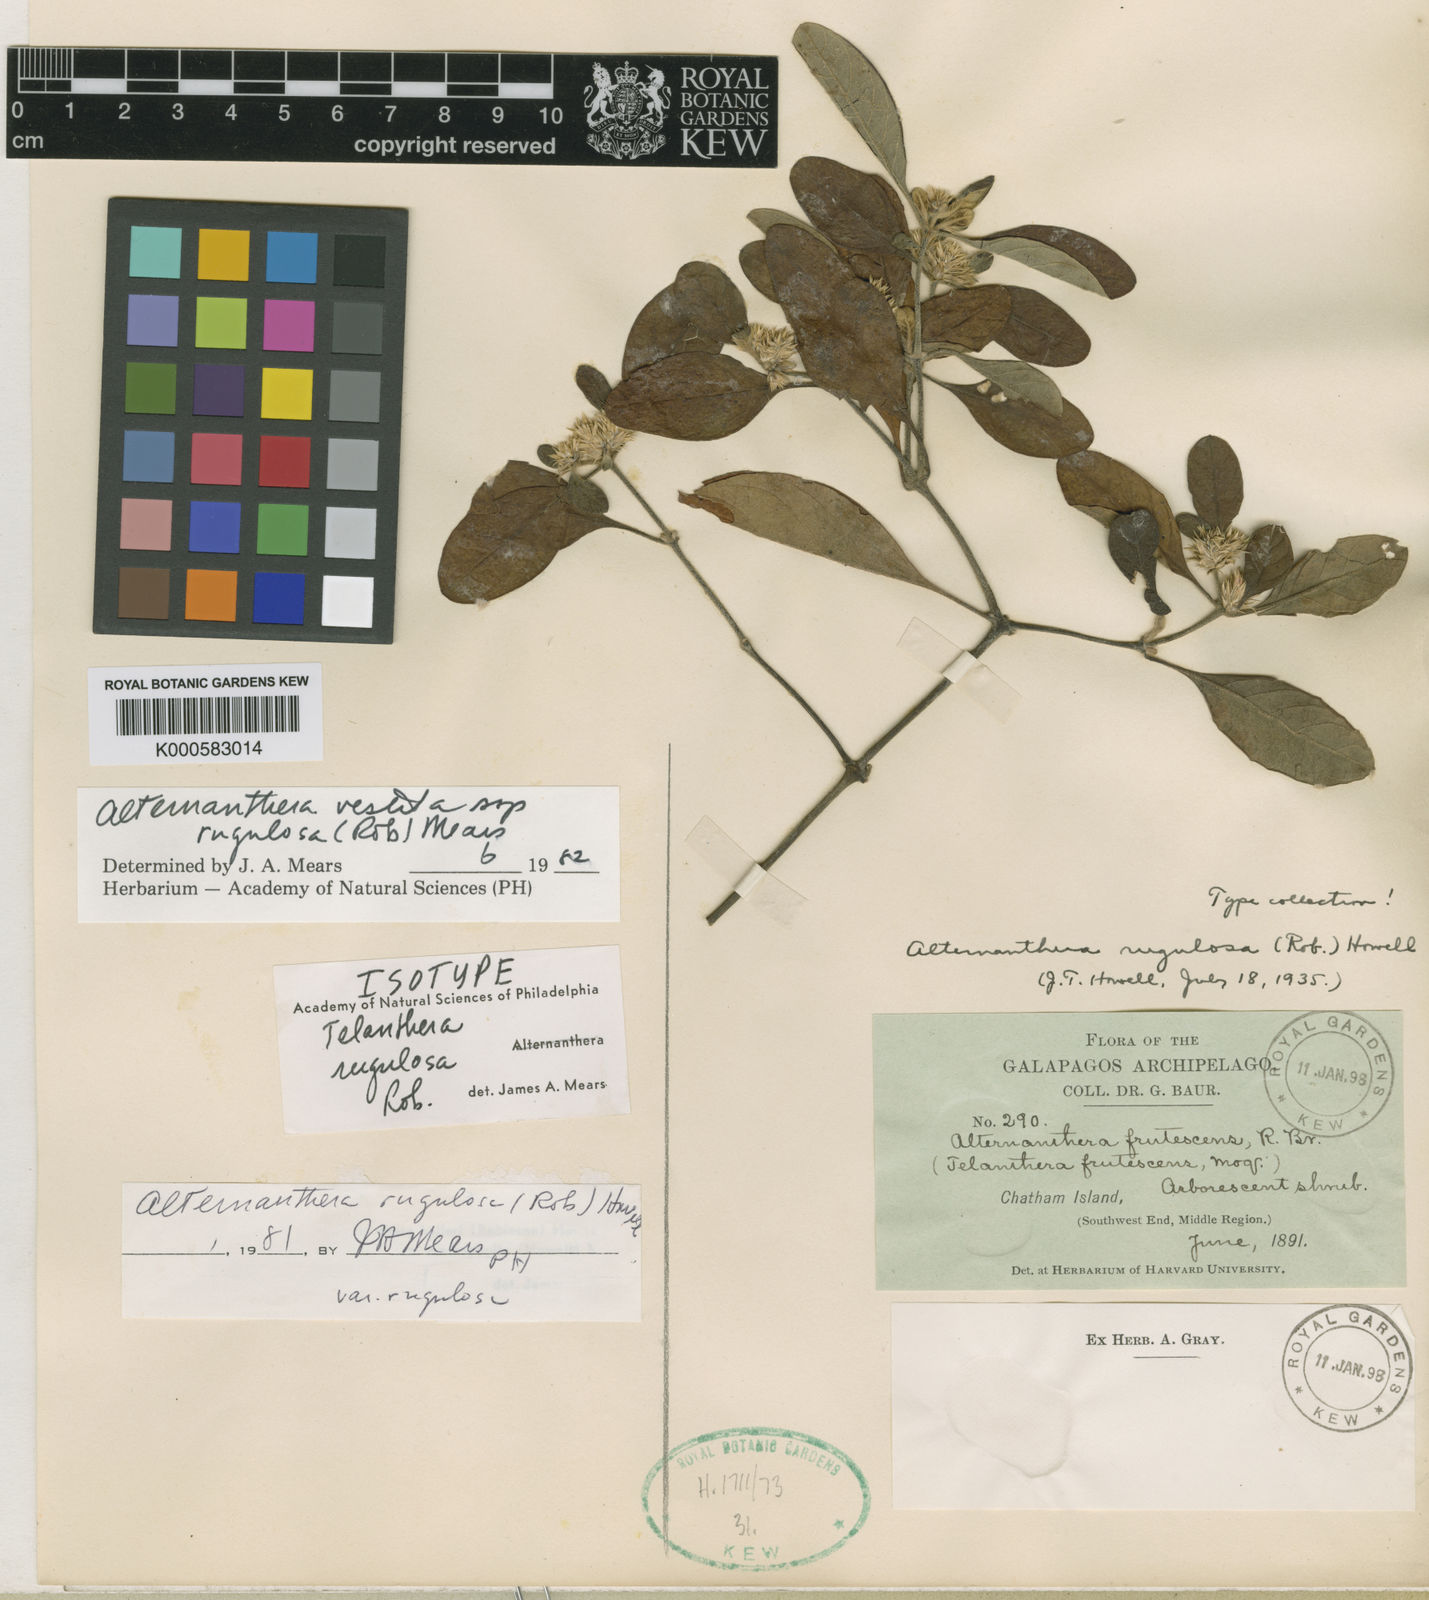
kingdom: Plantae
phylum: Tracheophyta
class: Magnoliopsida
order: Caryophyllales
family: Amaranthaceae
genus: Alternanthera
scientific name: Alternanthera vestita
